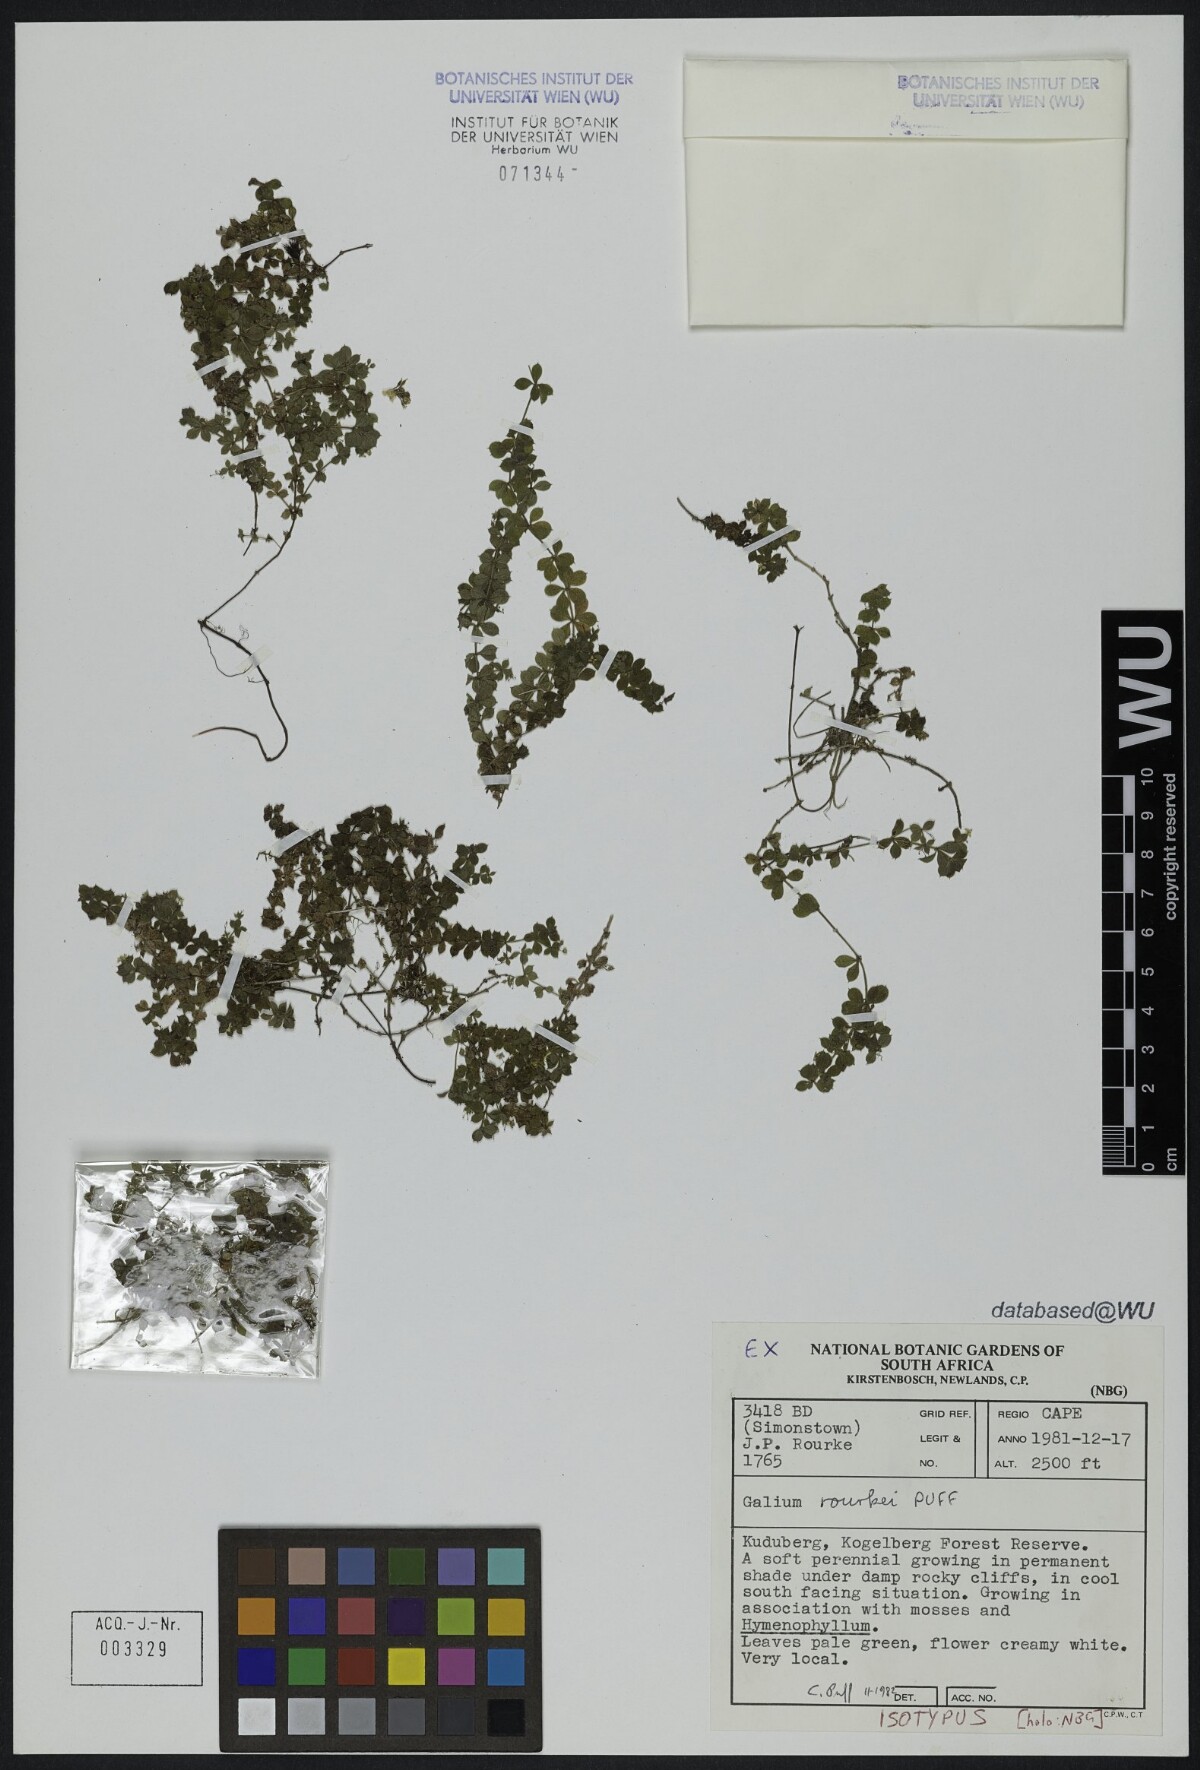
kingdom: Plantae
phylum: Tracheophyta
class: Magnoliopsida
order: Gentianales
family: Rubiaceae
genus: Galium
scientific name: Galium rourkei
